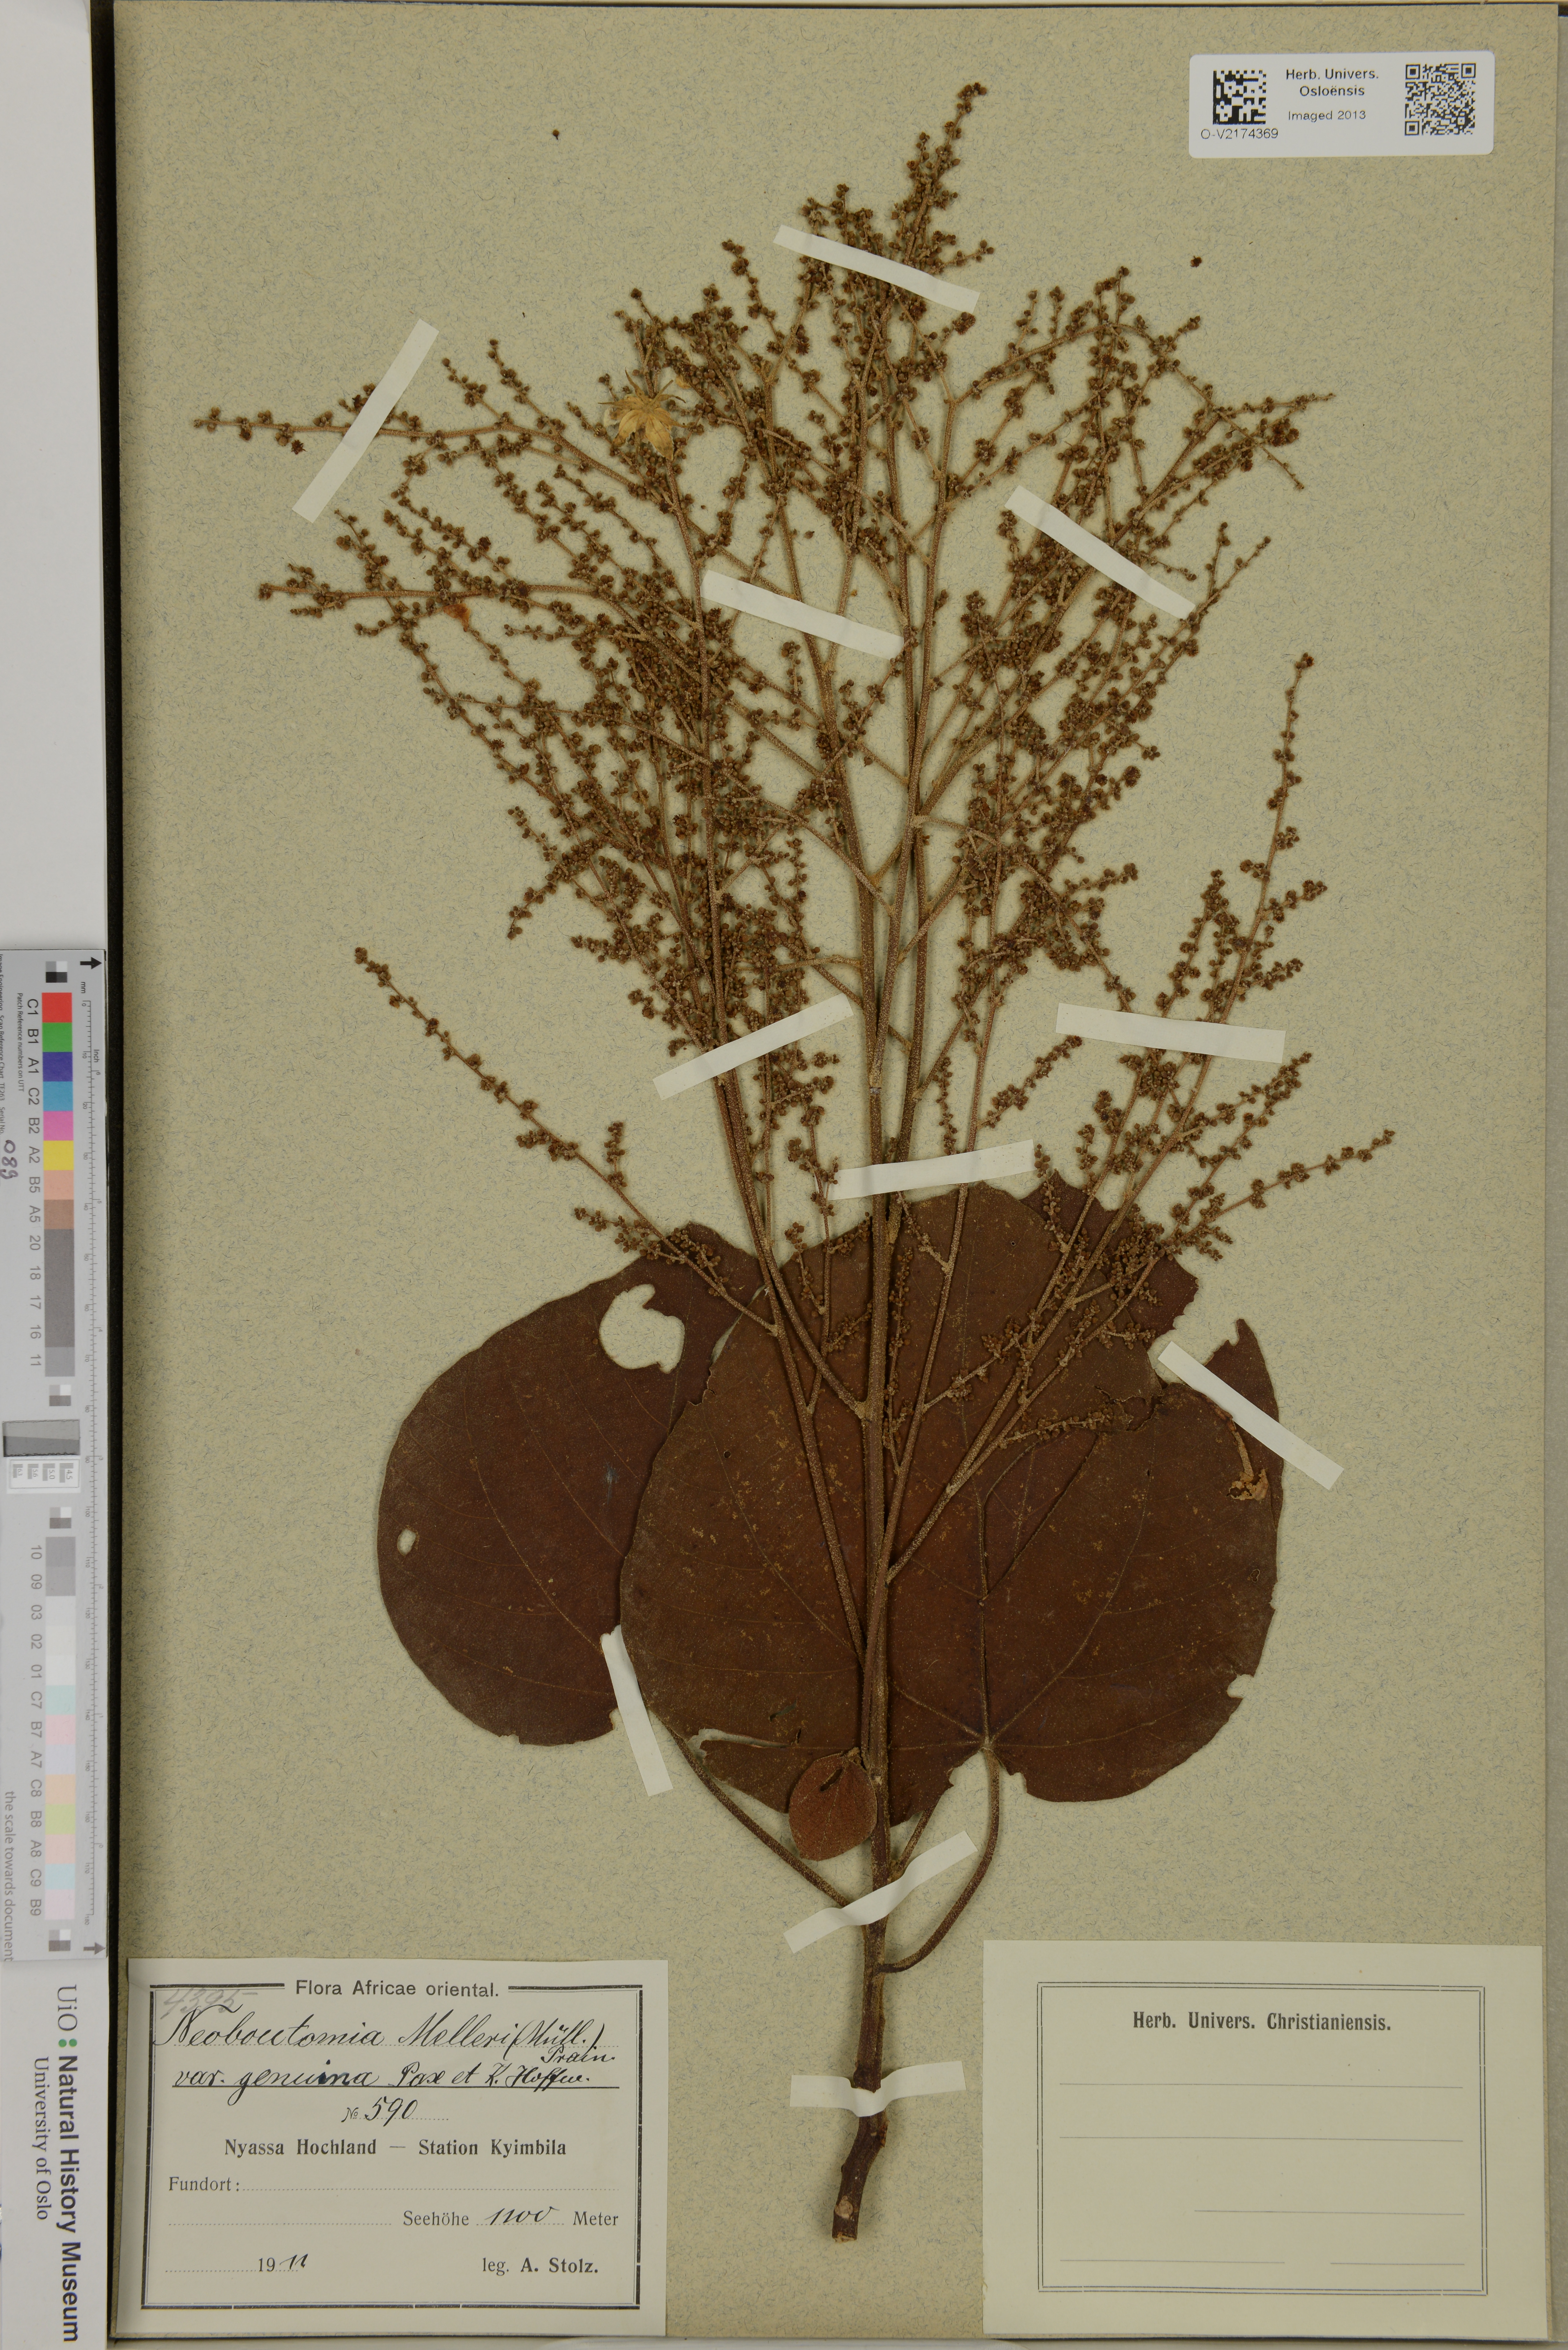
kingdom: Plantae
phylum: Tracheophyta
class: Magnoliopsida
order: Malpighiales
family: Euphorbiaceae
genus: Neoboutonia
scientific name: Neoboutonia melleri
